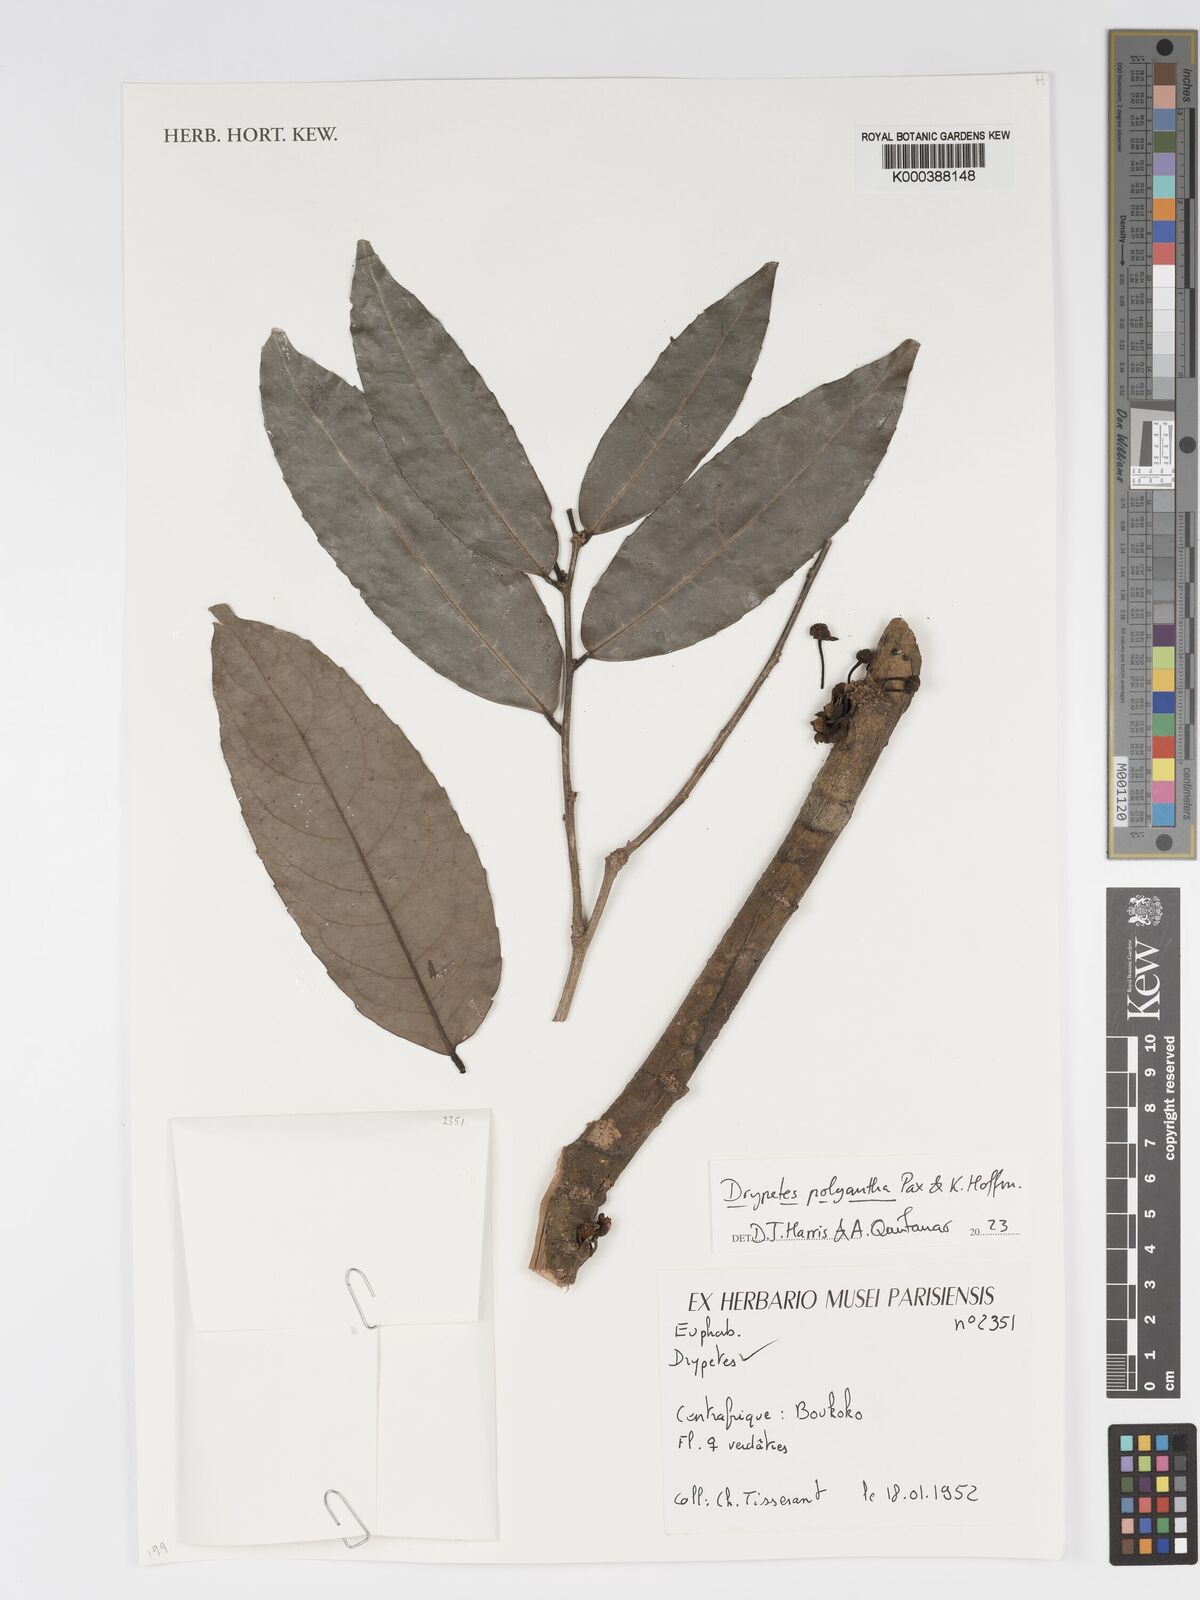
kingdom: Plantae
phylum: Tracheophyta
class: Magnoliopsida
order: Malpighiales
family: Putranjivaceae
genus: Drypetes
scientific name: Drypetes polyantha
